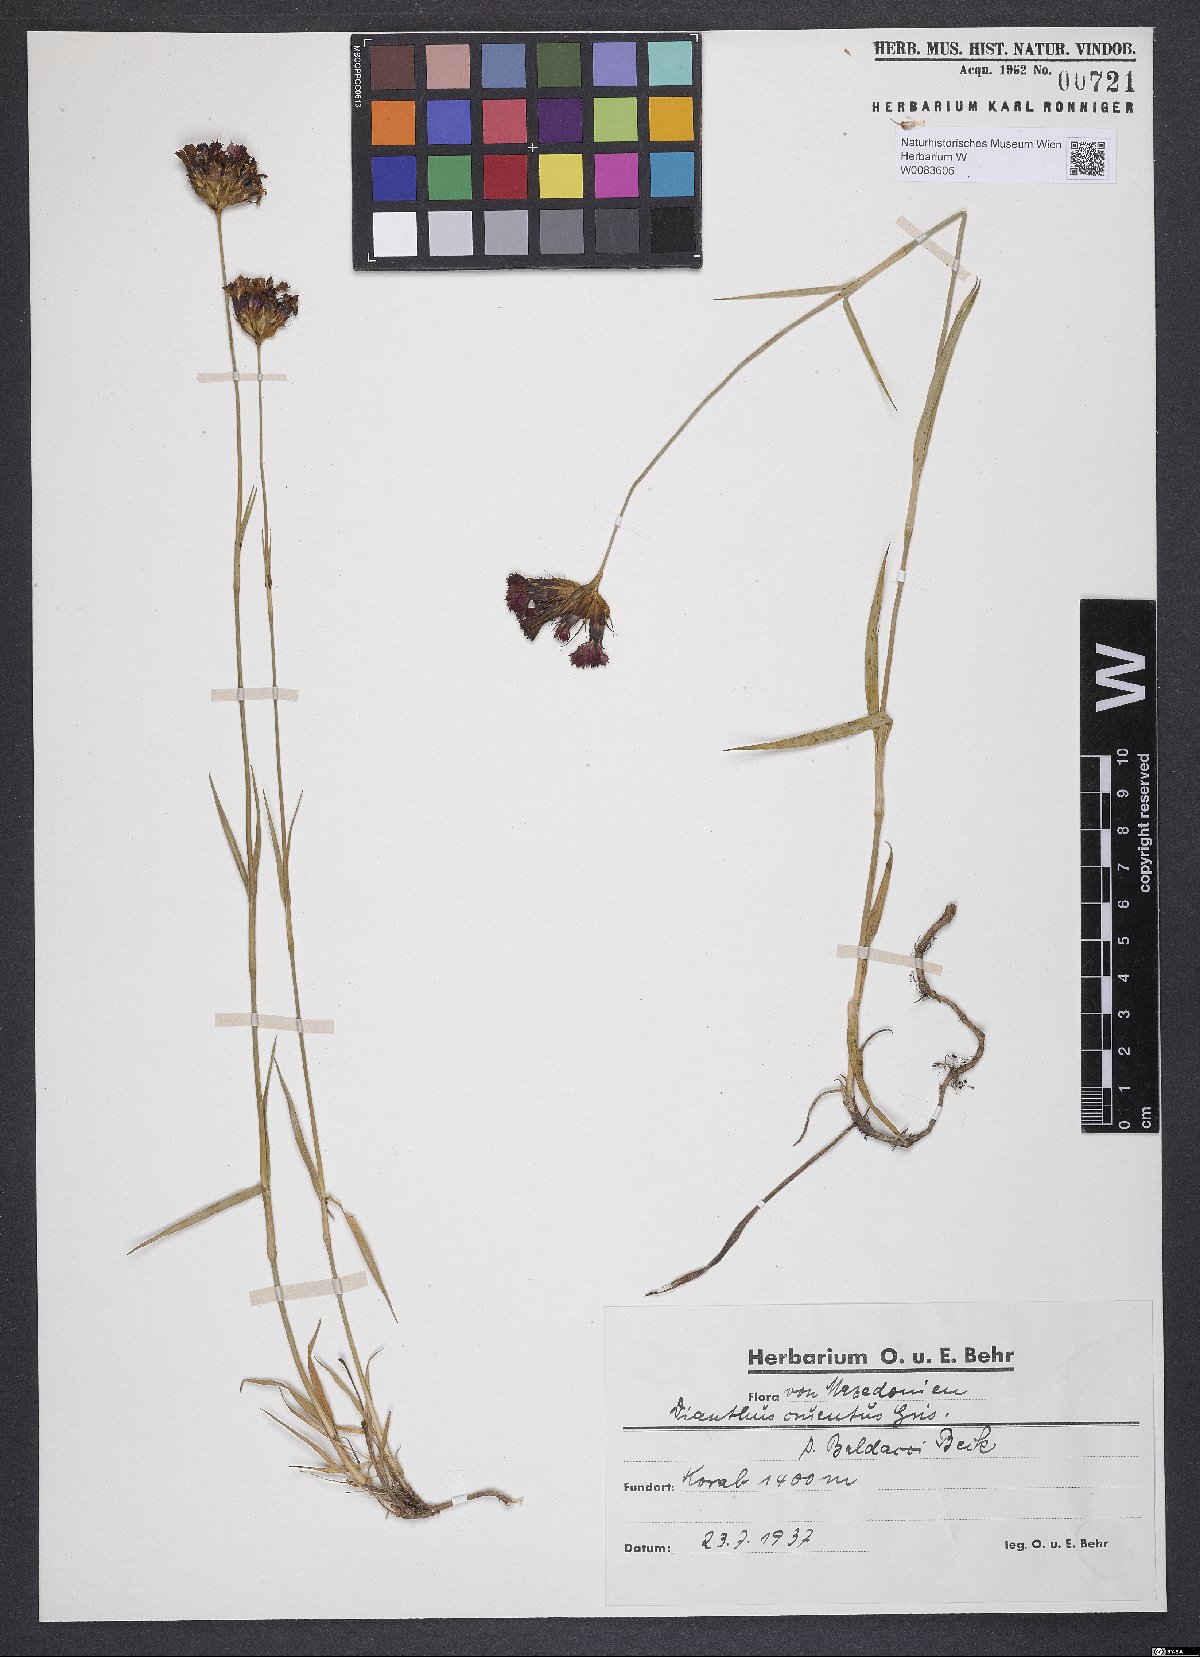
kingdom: Plantae
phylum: Tracheophyta
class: Magnoliopsida
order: Caryophyllales
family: Caryophyllaceae
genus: Dianthus
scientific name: Dianthus cruentus
